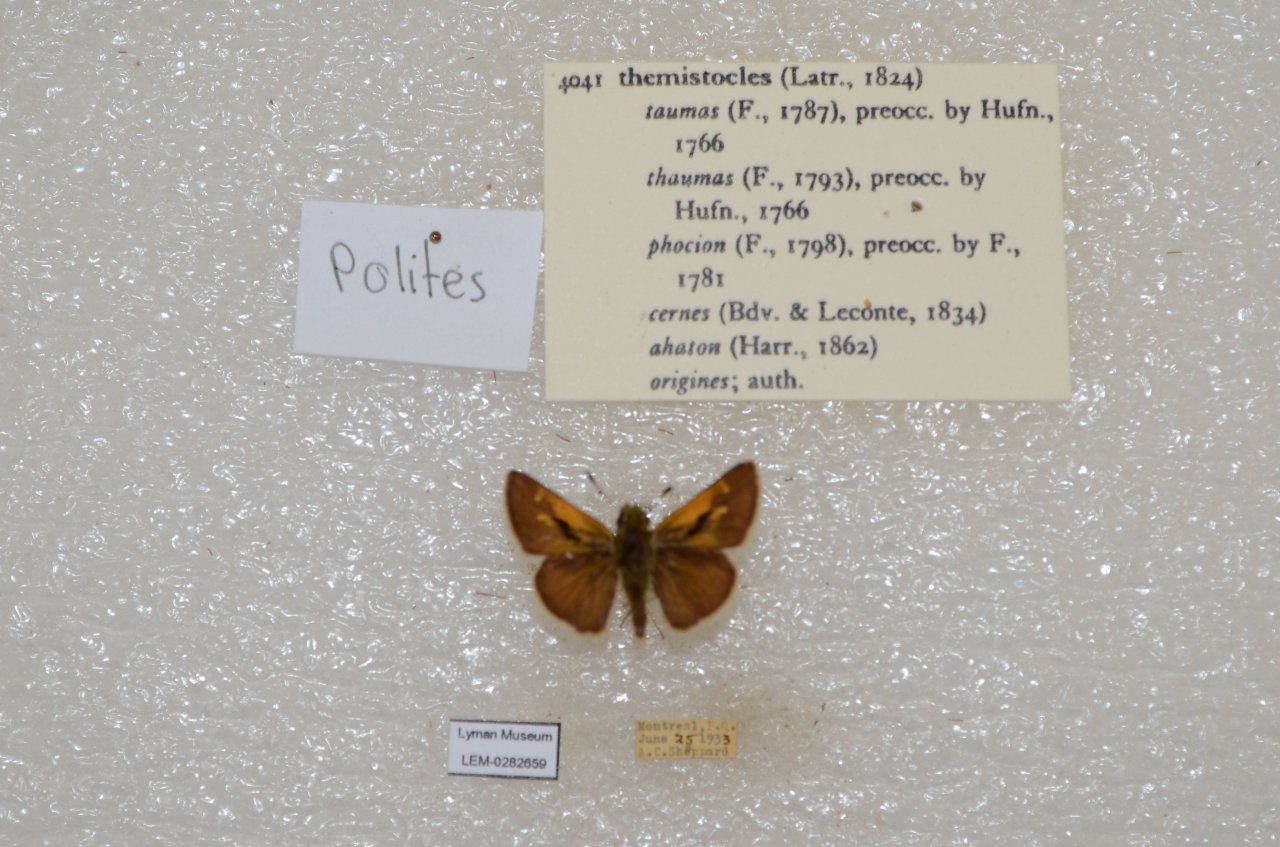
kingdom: Animalia
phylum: Arthropoda
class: Insecta
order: Lepidoptera
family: Hesperiidae
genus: Polites
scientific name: Polites themistocles
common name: Tawny-edged Skipper
